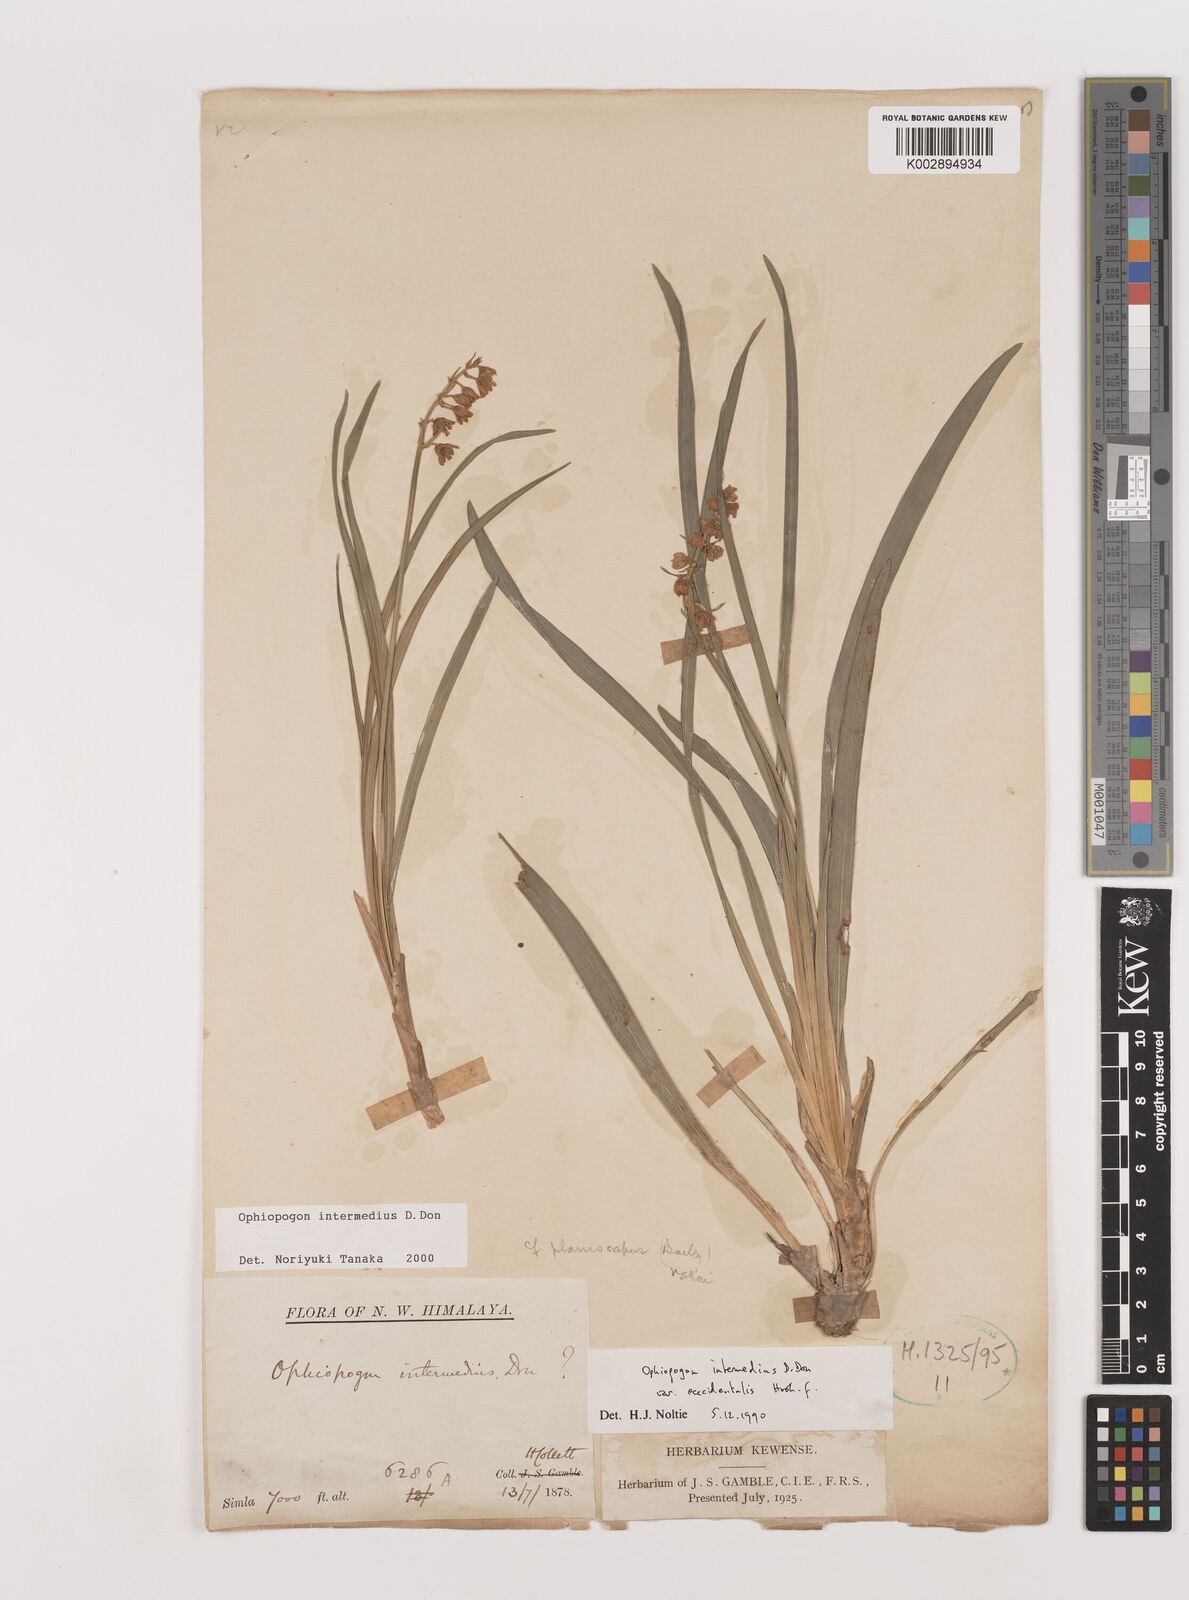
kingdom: Plantae
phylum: Tracheophyta
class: Liliopsida
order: Asparagales
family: Asparagaceae
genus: Ophiopogon
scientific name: Ophiopogon intermedius
